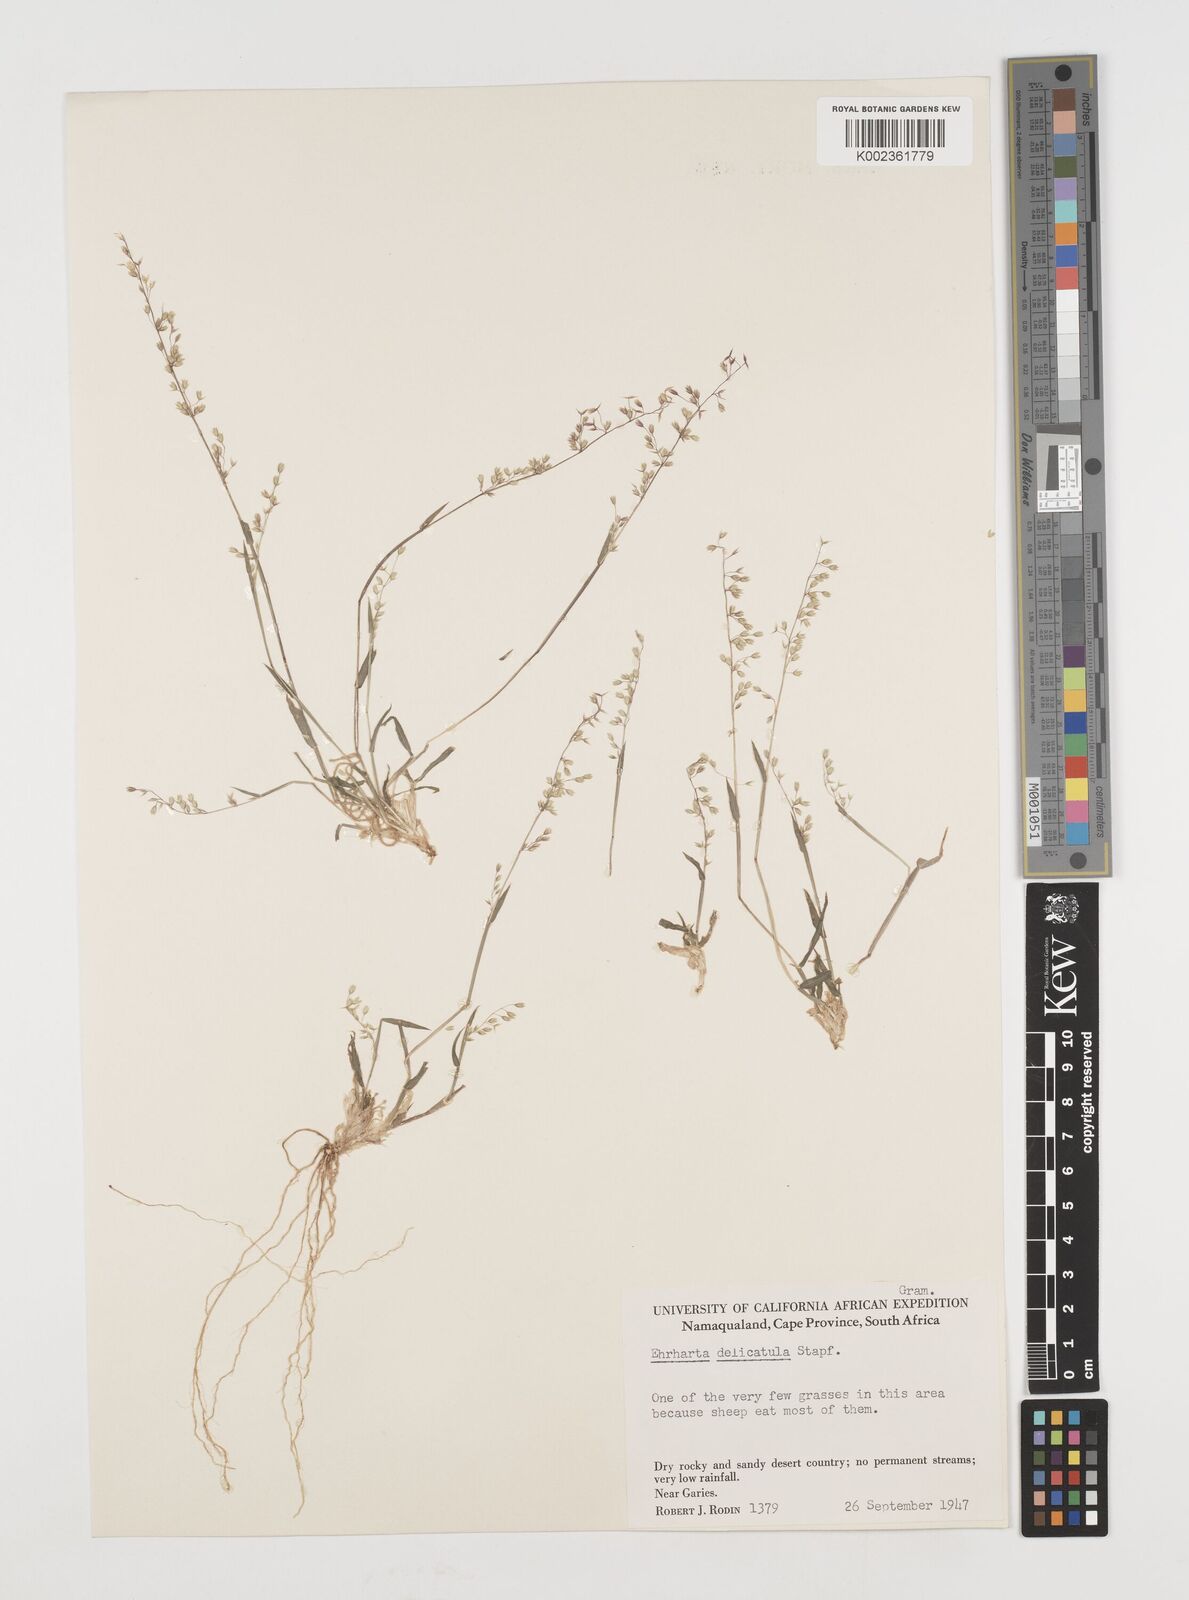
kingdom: Plantae
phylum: Tracheophyta
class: Liliopsida
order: Poales
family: Poaceae
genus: Ehrharta
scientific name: Ehrharta delicatula
